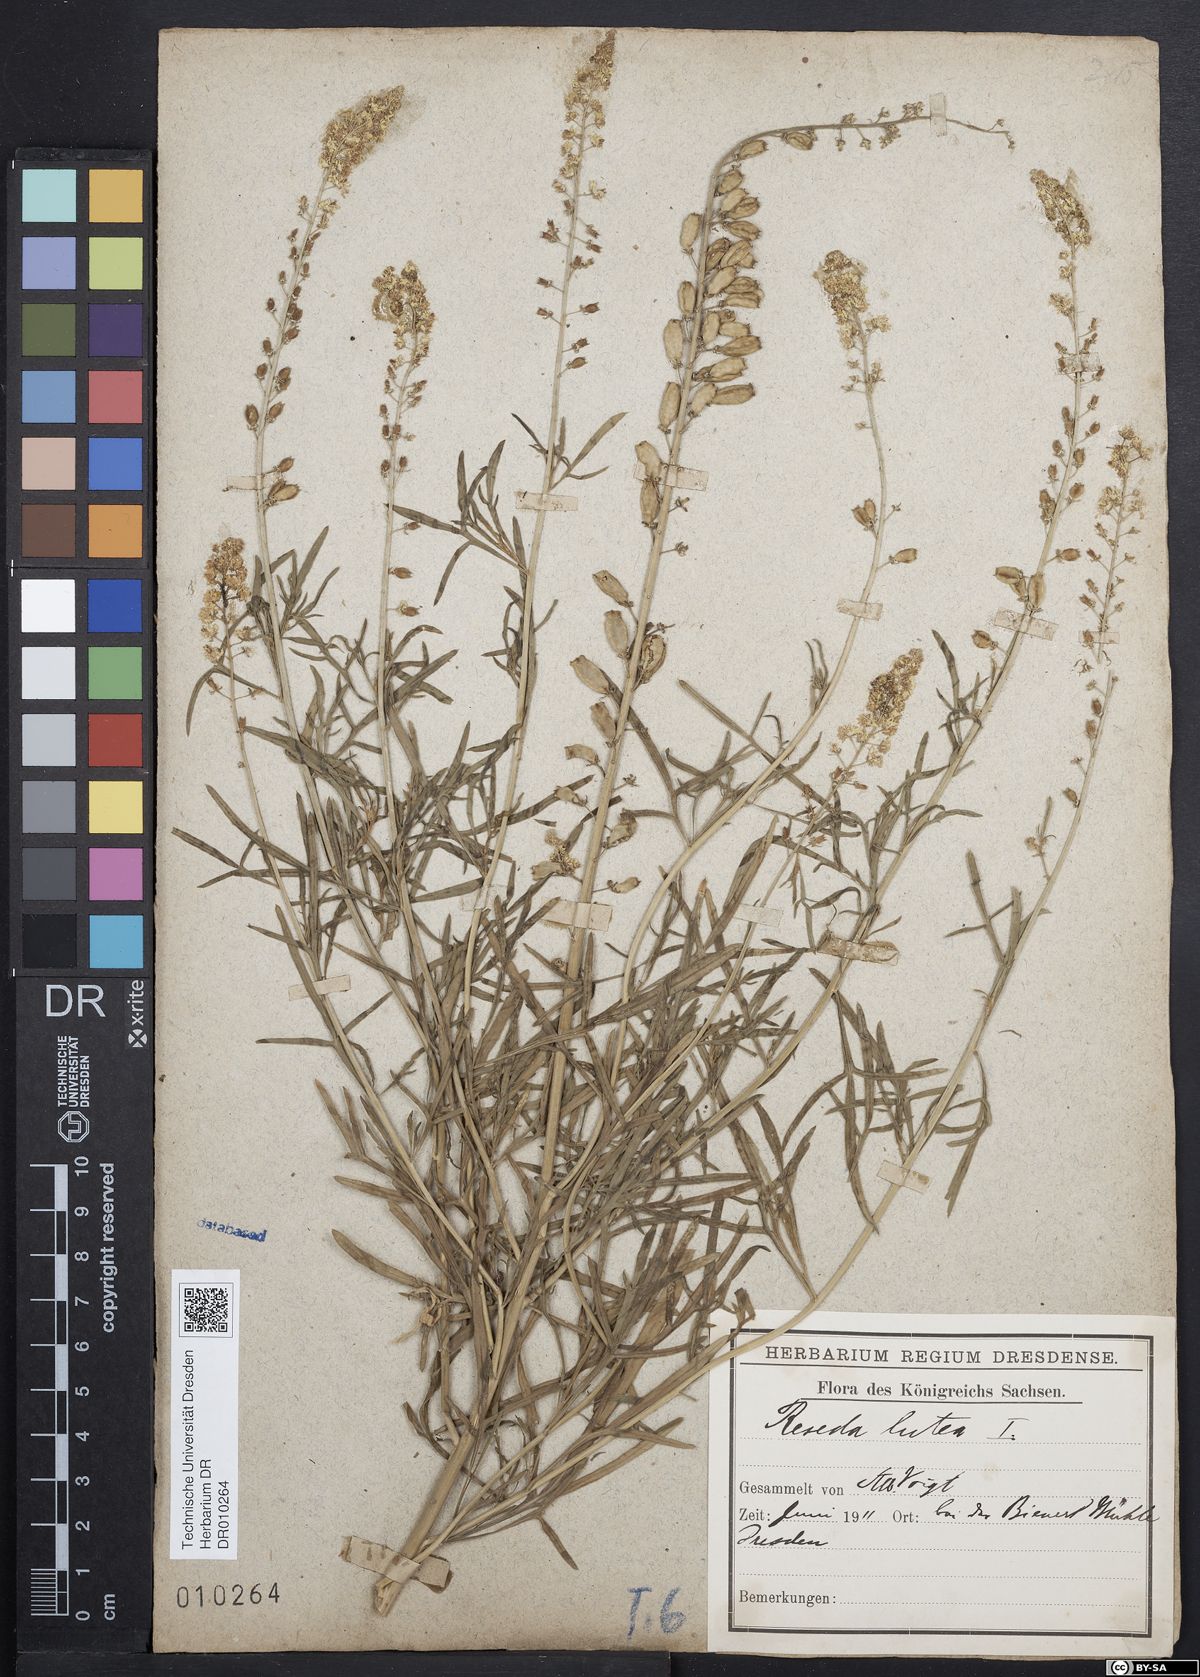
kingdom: Plantae
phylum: Tracheophyta
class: Magnoliopsida
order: Brassicales
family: Resedaceae
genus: Reseda
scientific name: Reseda lutea
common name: Wild mignonette
